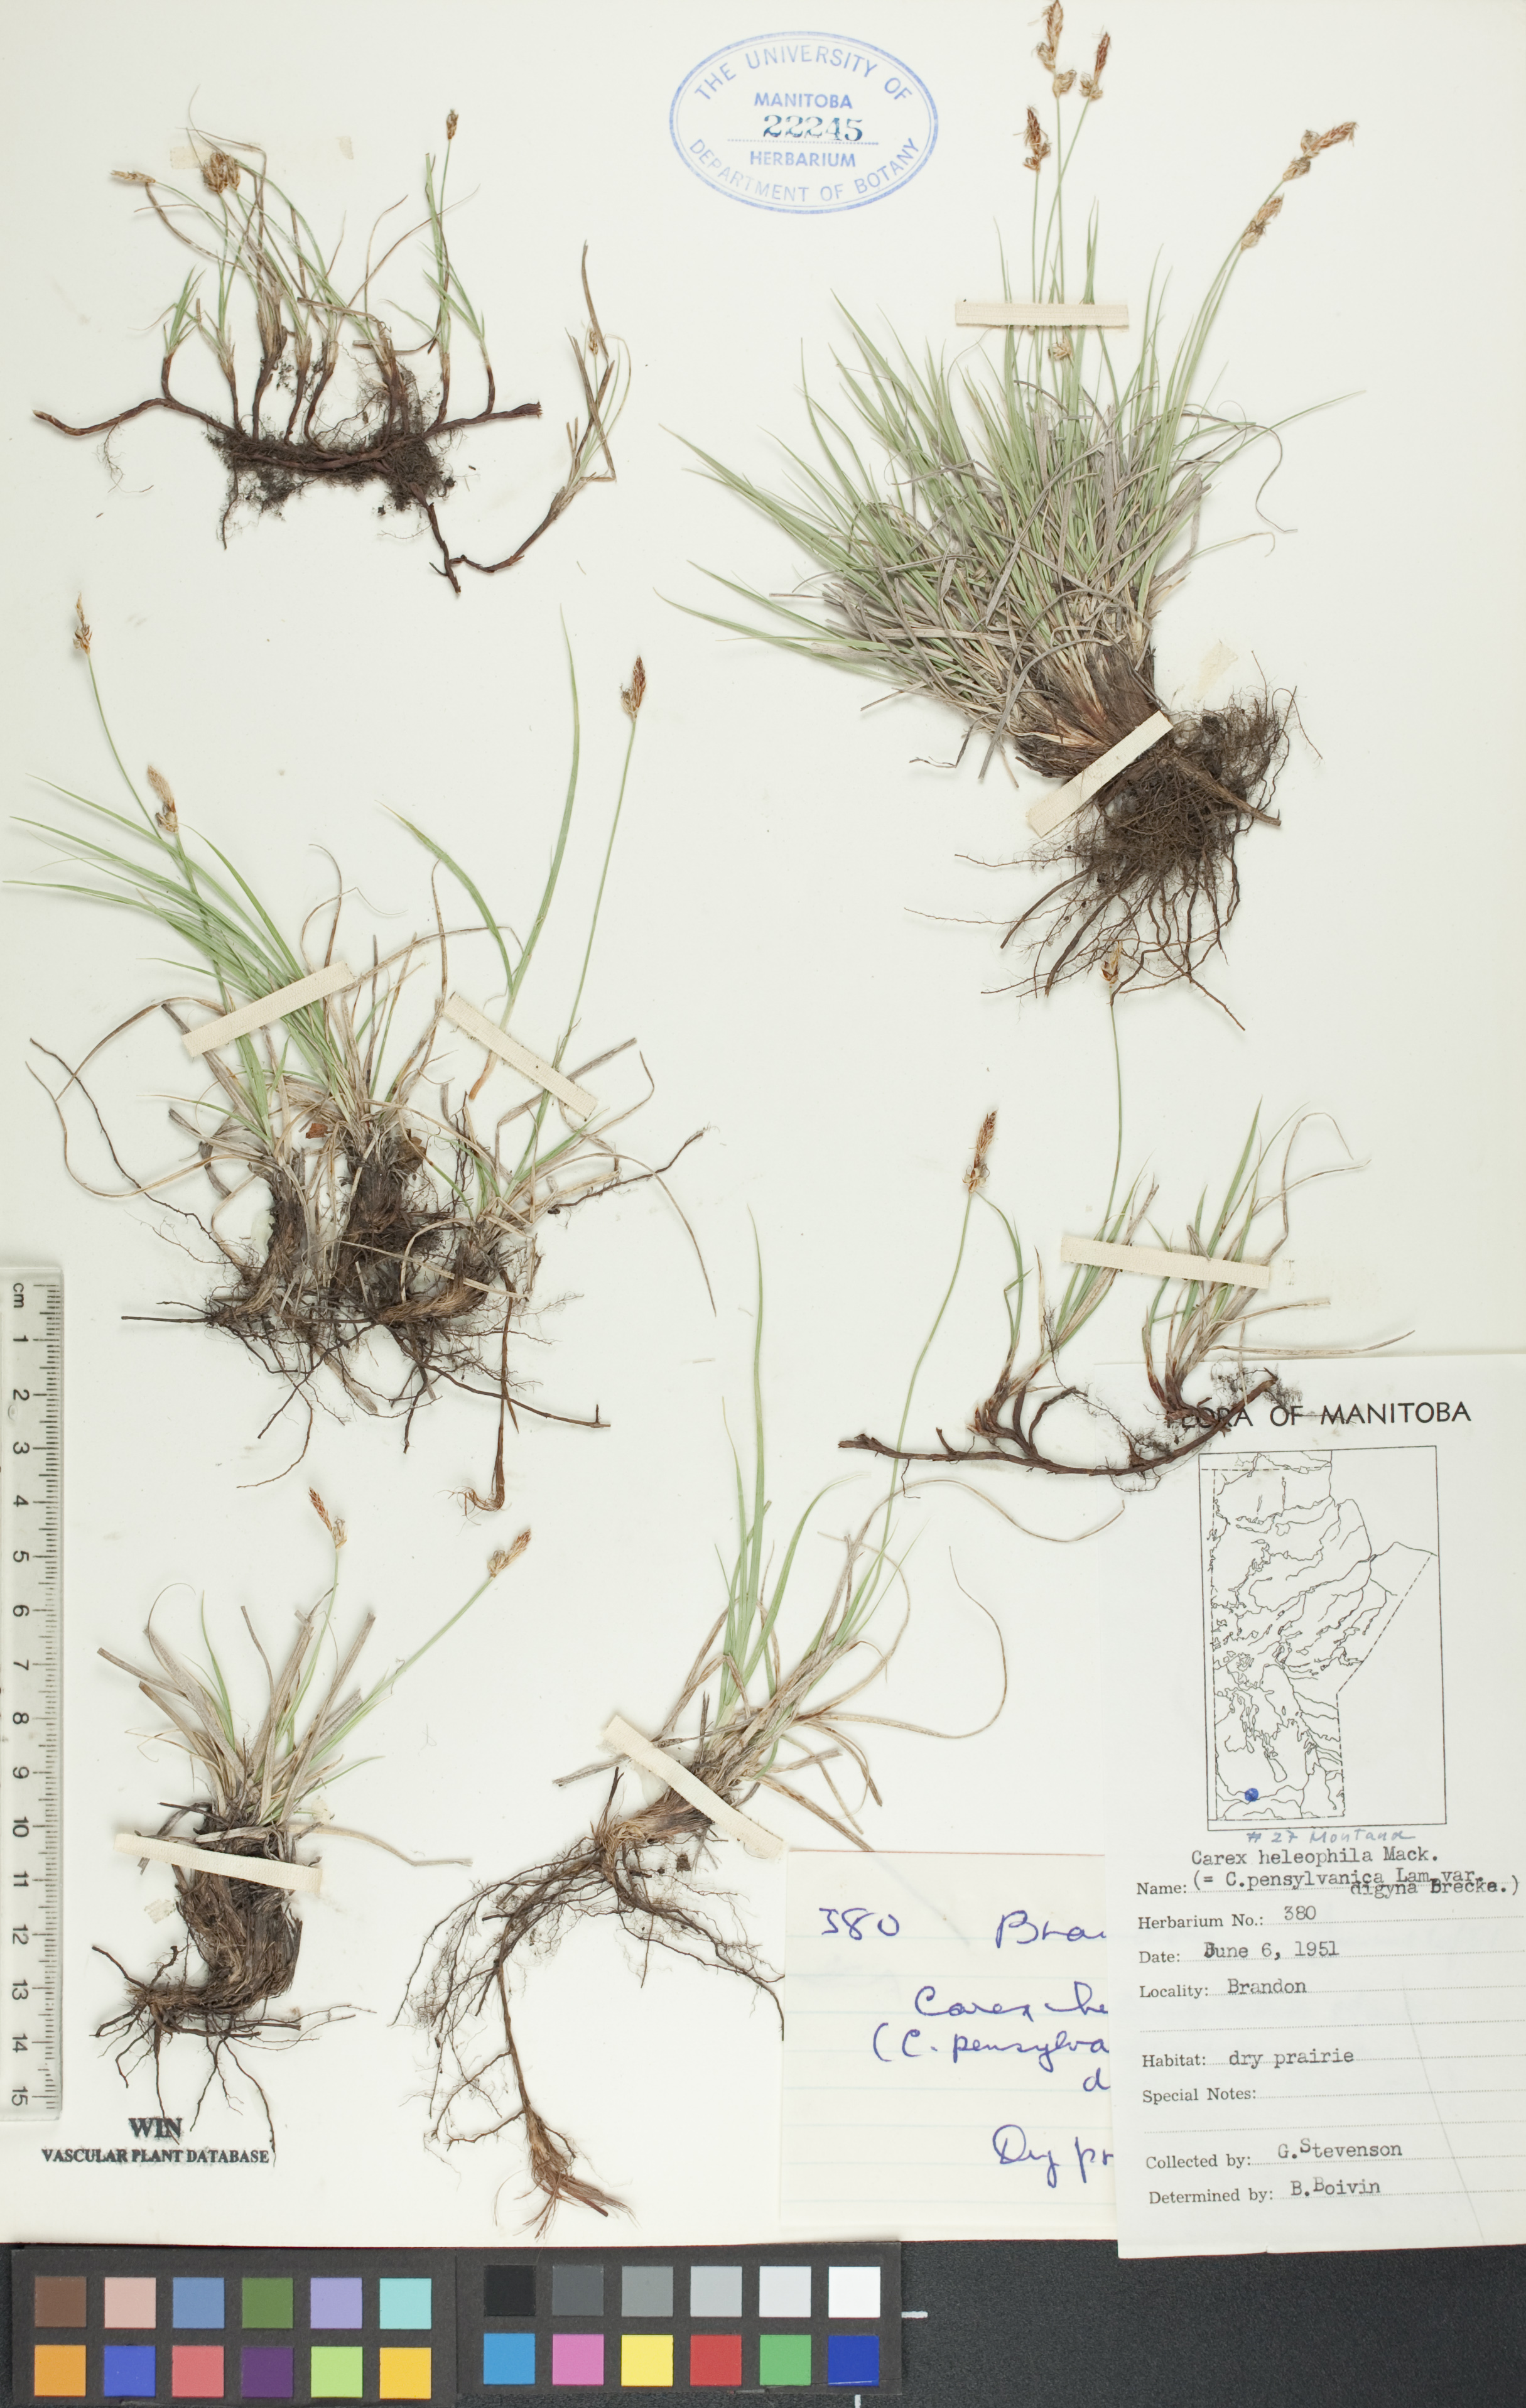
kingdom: Plantae
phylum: Tracheophyta
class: Liliopsida
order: Poales
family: Cyperaceae
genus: Carex
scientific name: Carex inops
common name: Long-stolon sedge
